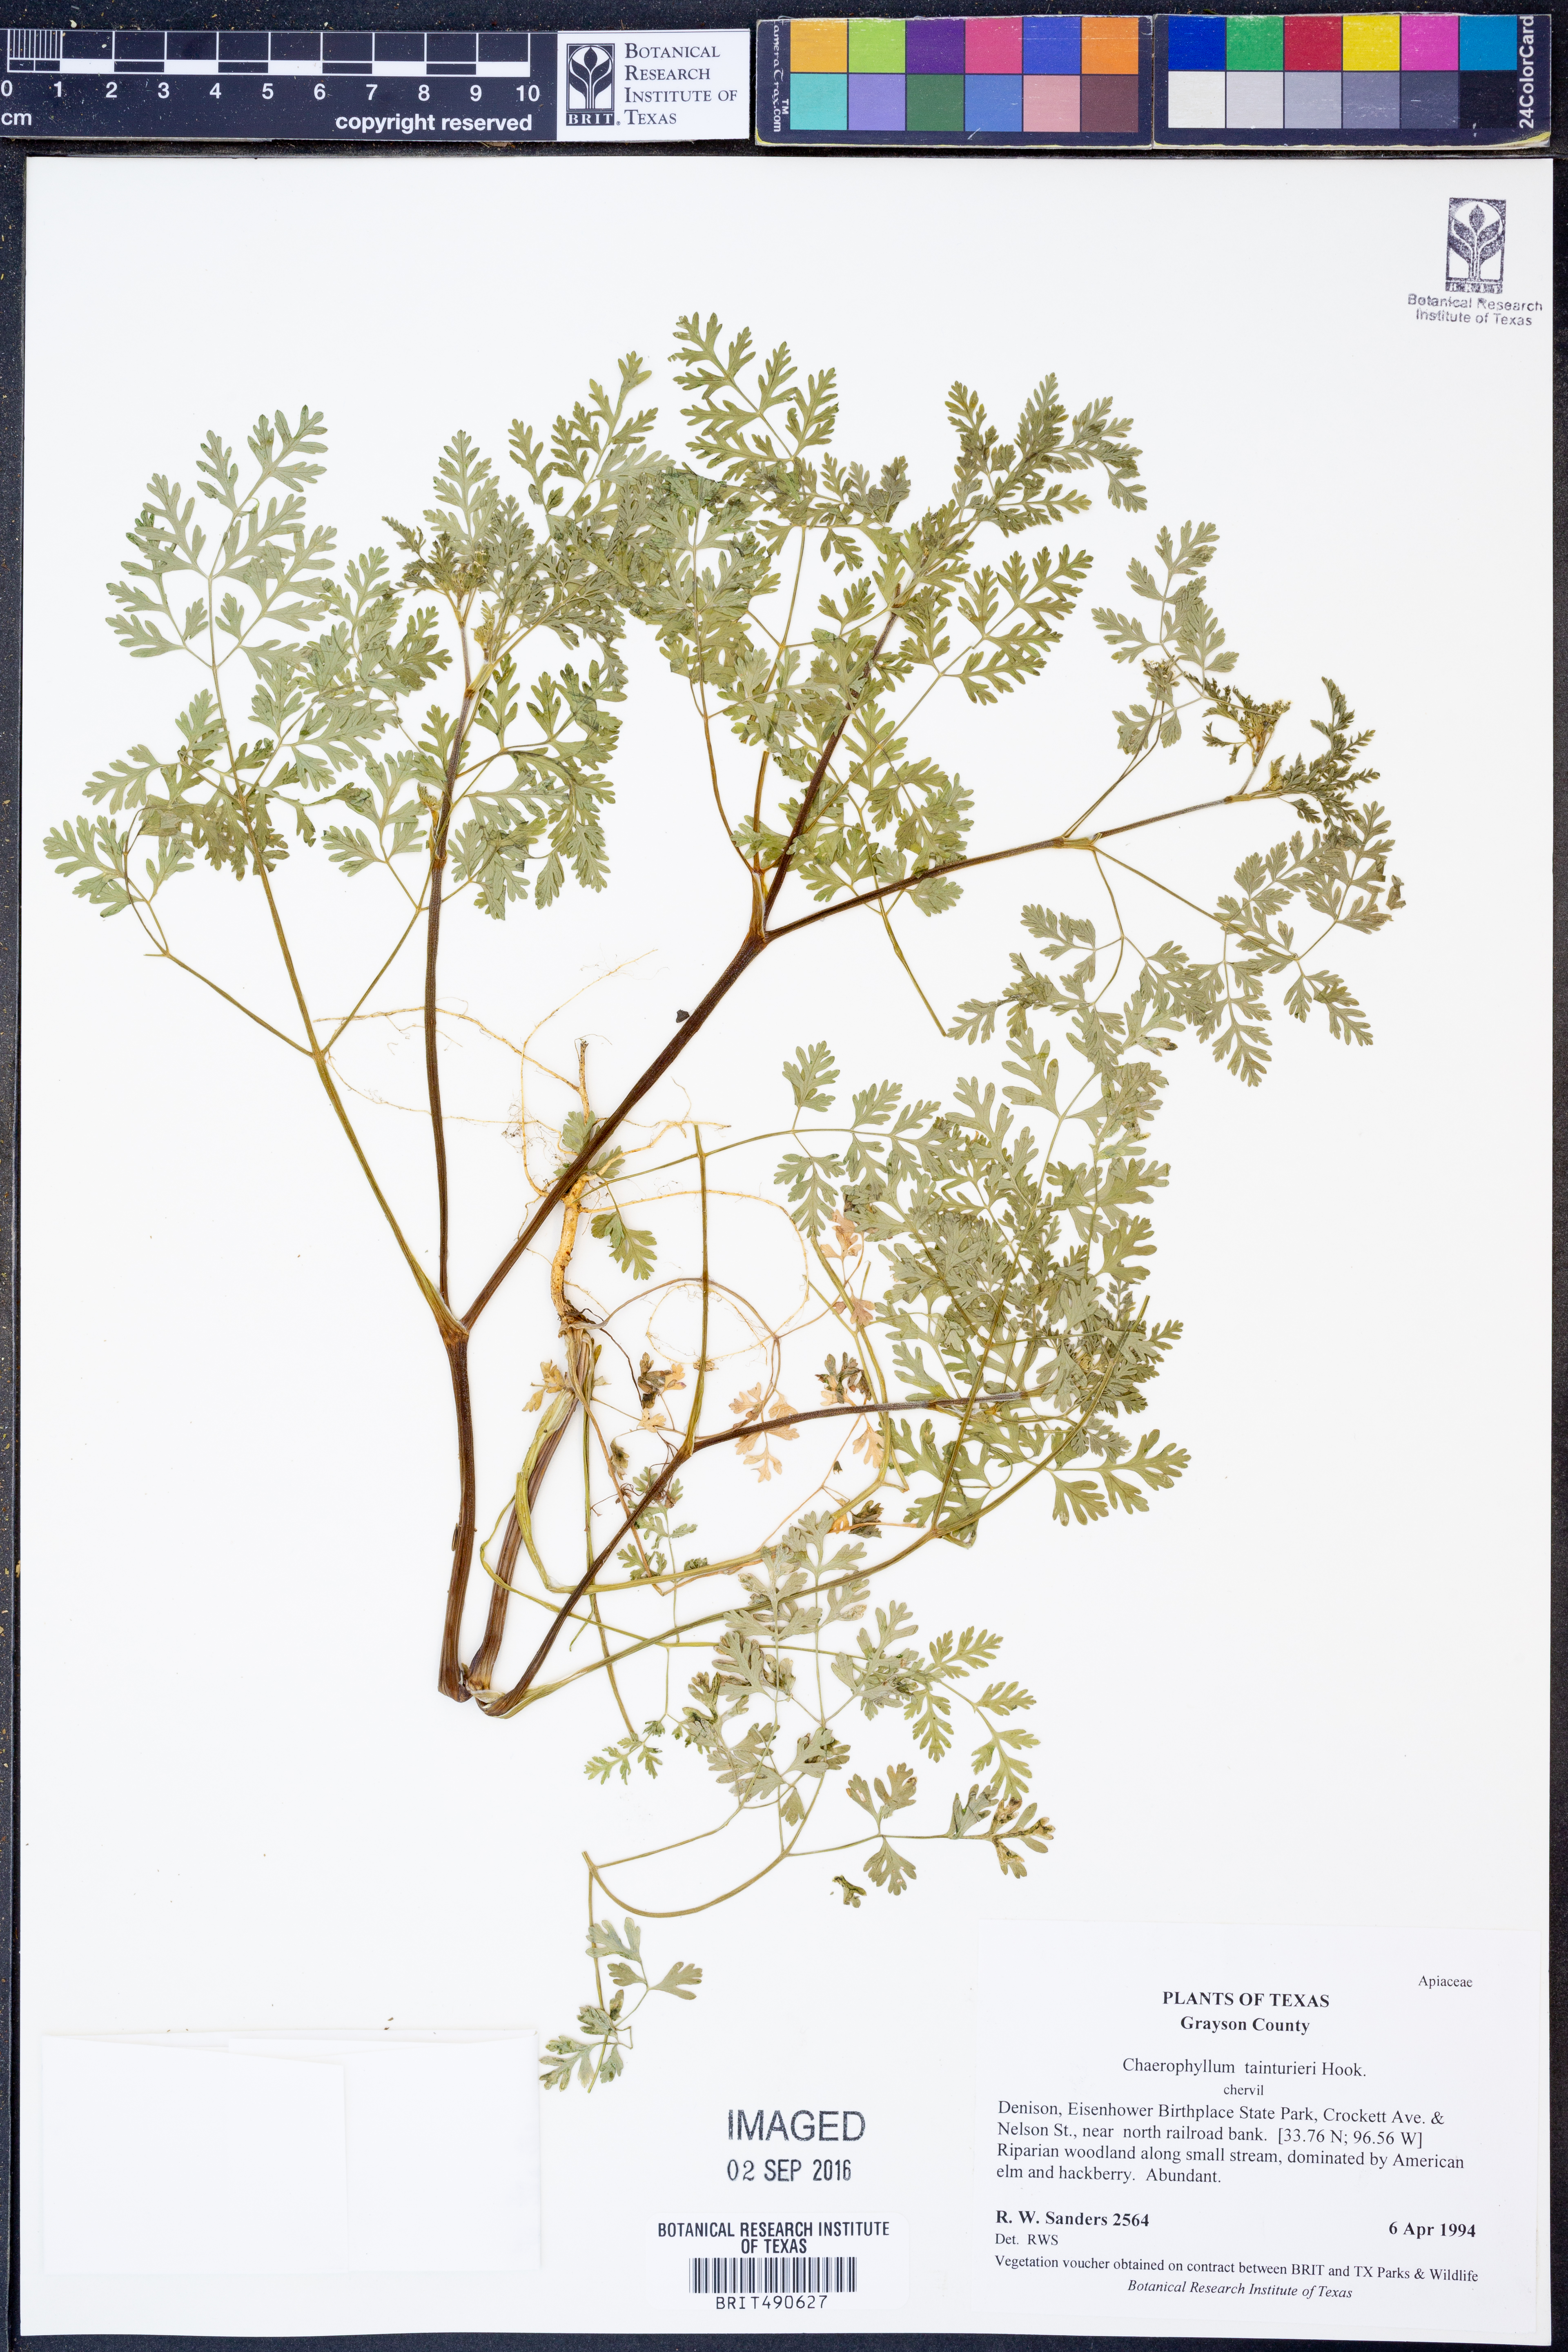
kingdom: Plantae
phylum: Tracheophyta
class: Magnoliopsida
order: Apiales
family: Apiaceae
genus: Chaerophyllum
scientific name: Chaerophyllum tainturieri
